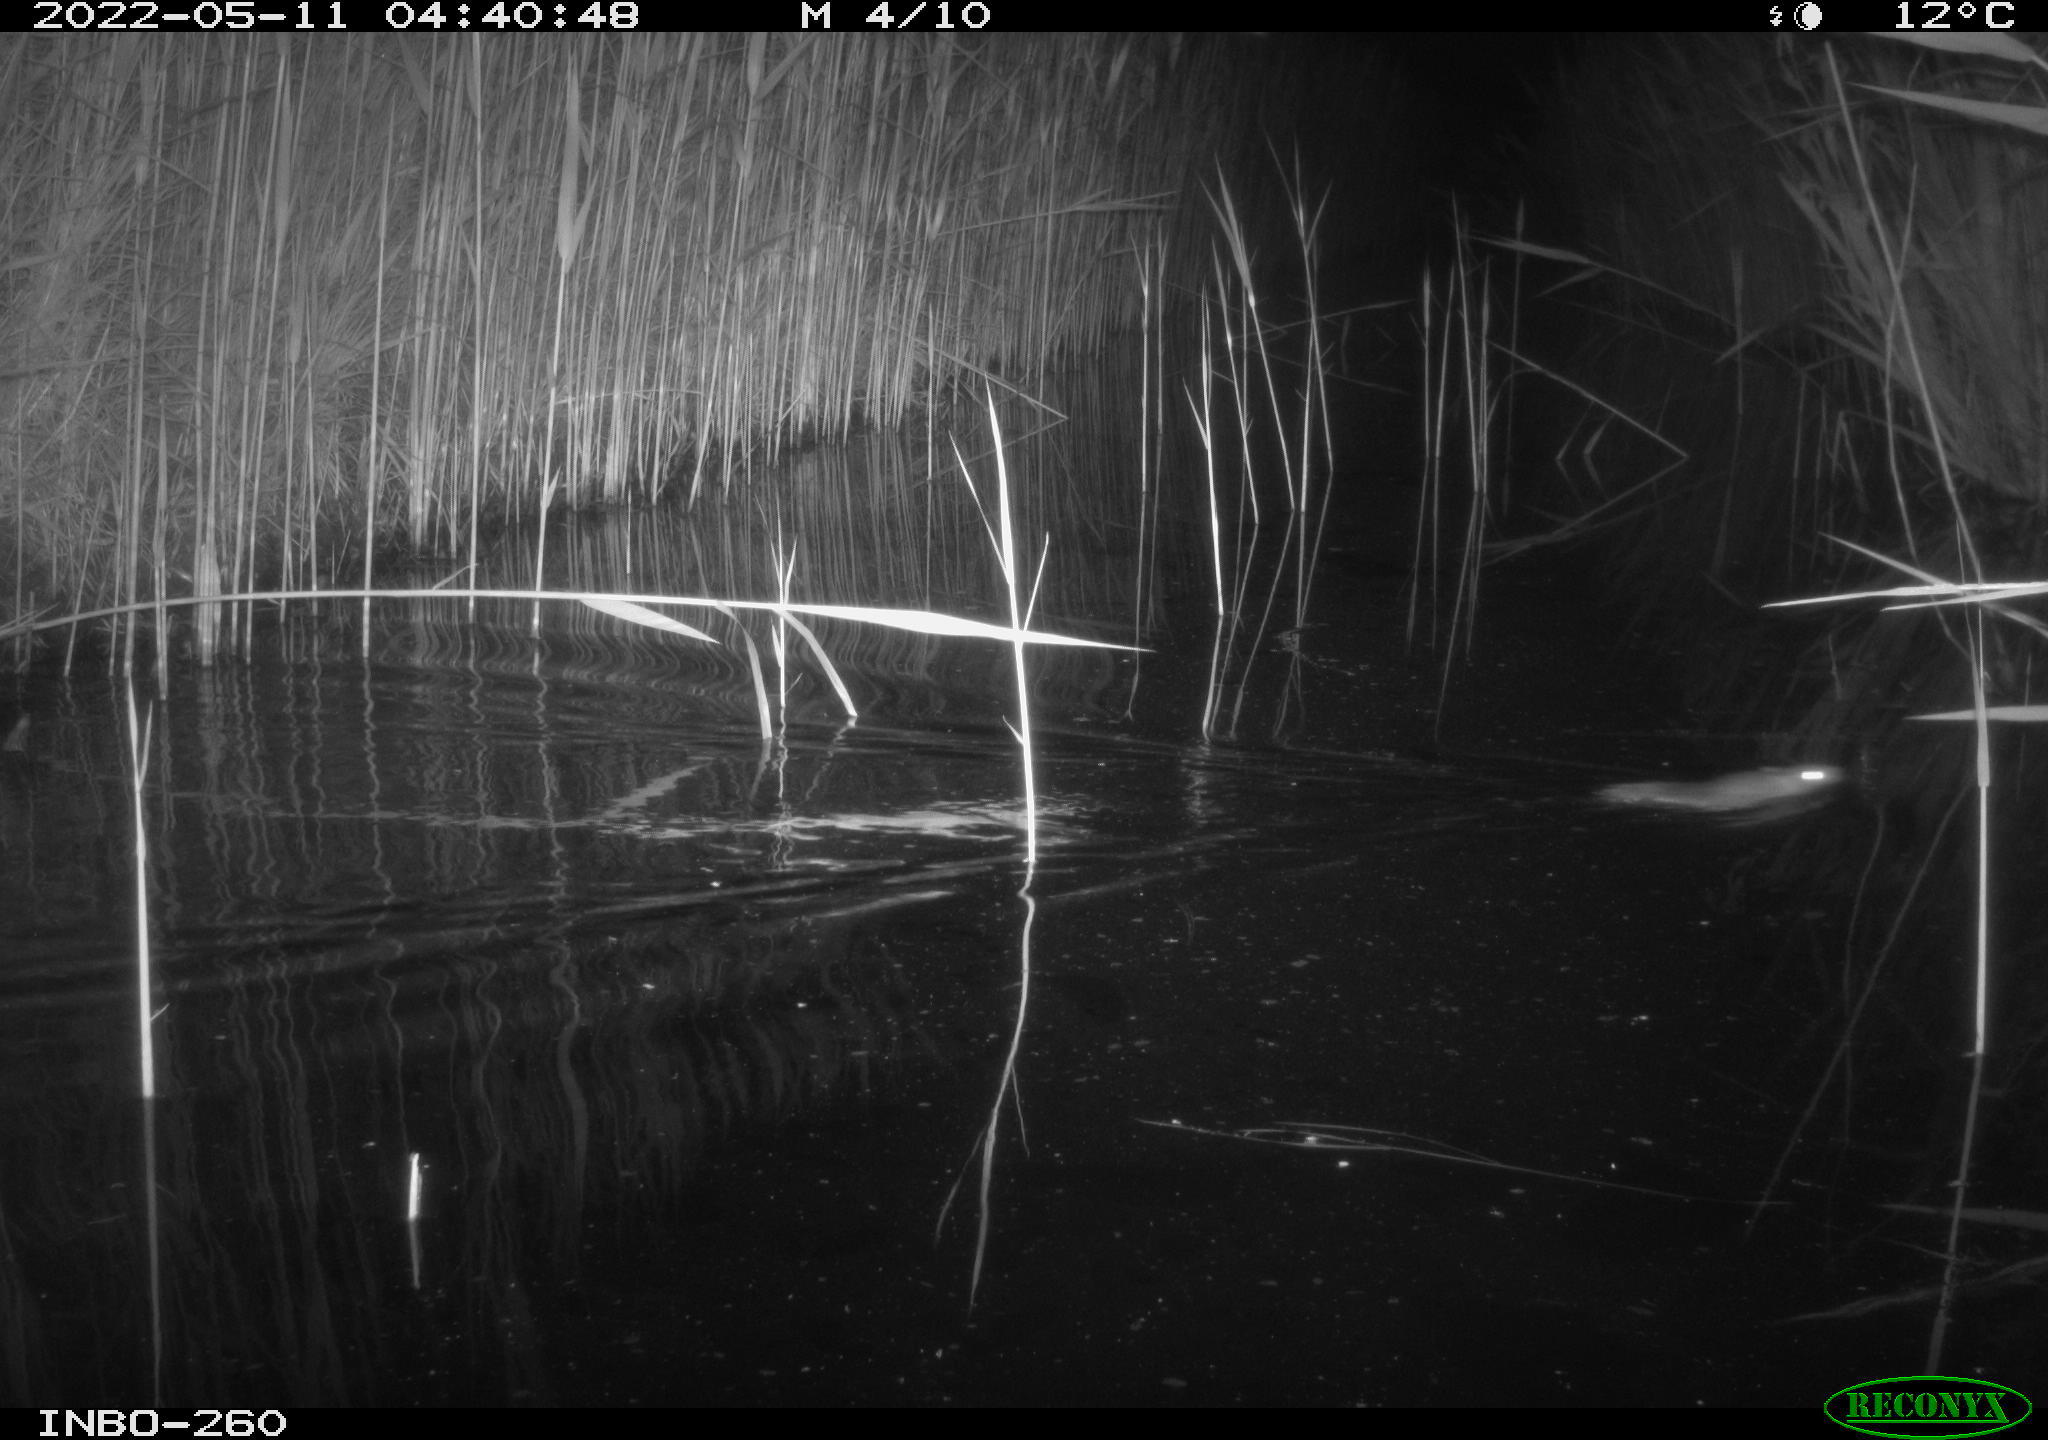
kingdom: Animalia
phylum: Chordata
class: Mammalia
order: Rodentia
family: Muridae
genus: Rattus
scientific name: Rattus norvegicus
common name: Brown rat
